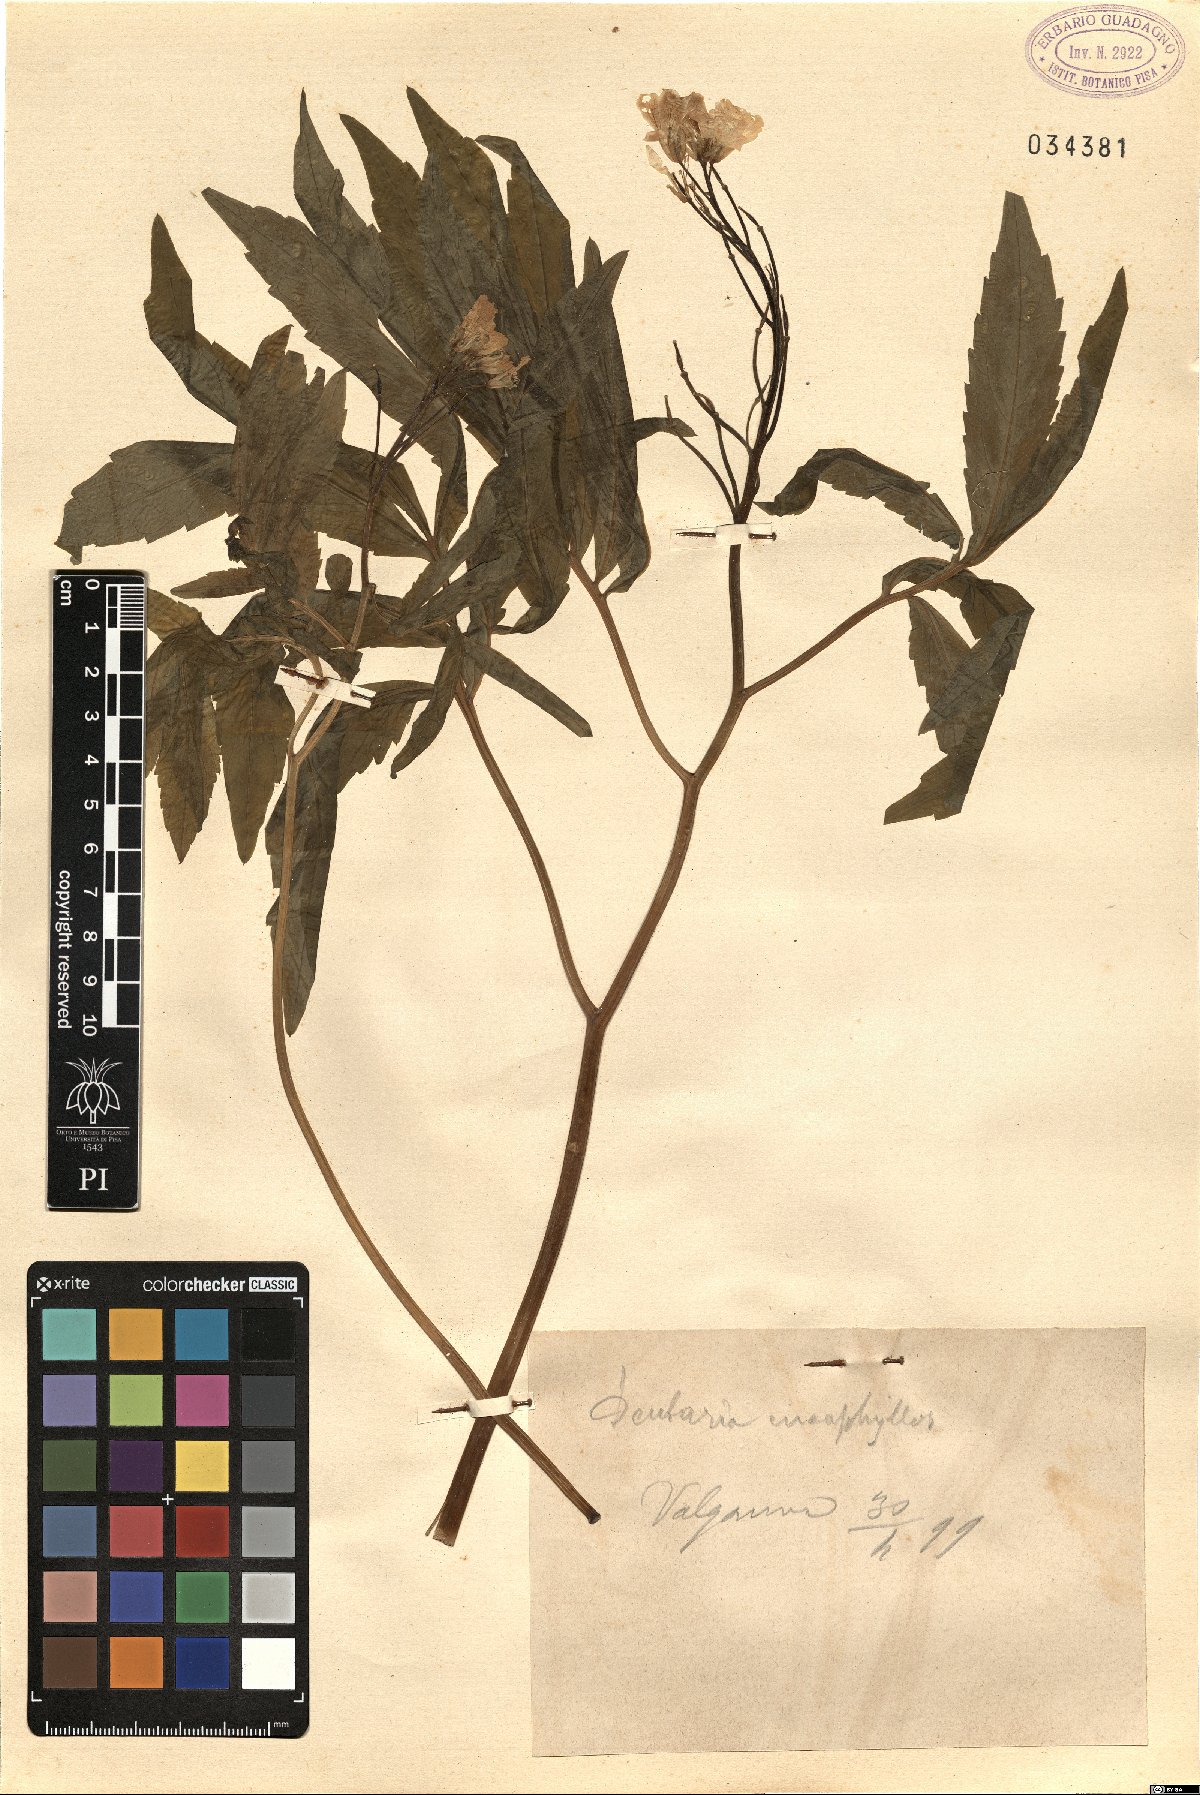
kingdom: Plantae
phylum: Tracheophyta
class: Magnoliopsida
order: Brassicales
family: Brassicaceae
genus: Cardamine
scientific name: Cardamine enneaphyllos
